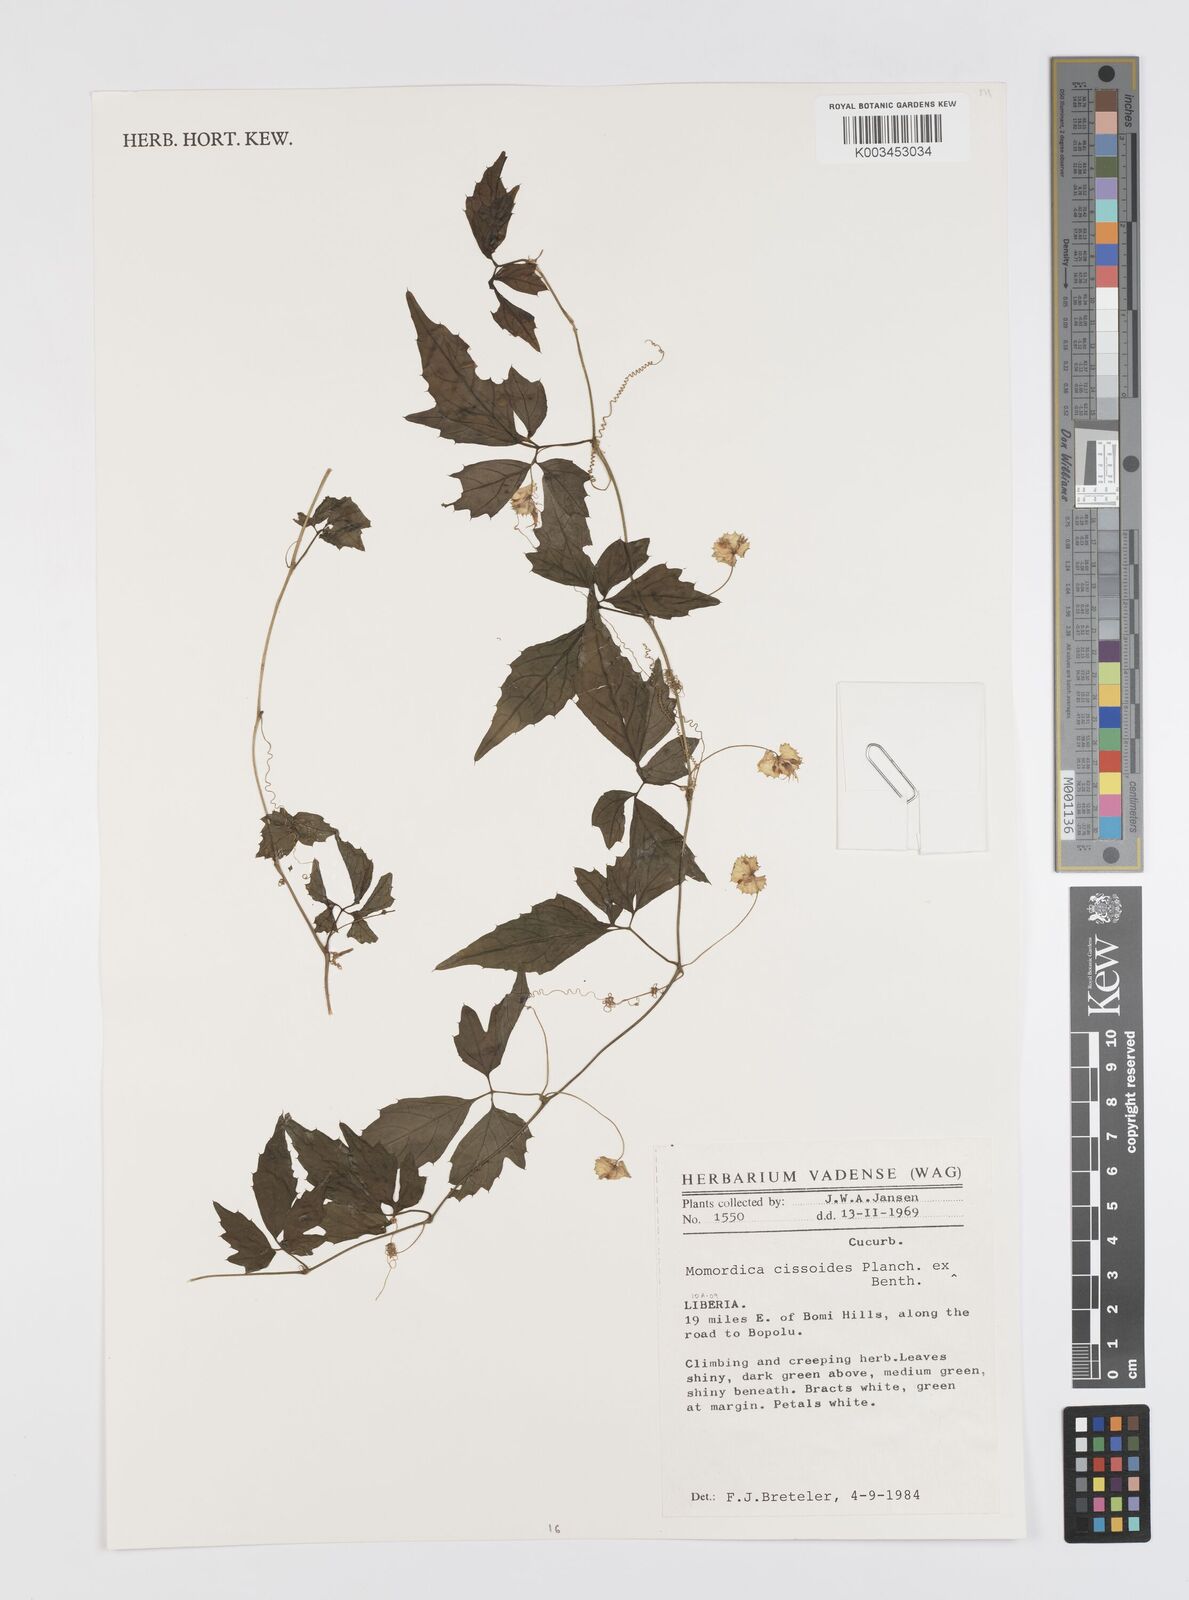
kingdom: Plantae
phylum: Tracheophyta
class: Magnoliopsida
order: Cucurbitales
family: Cucurbitaceae
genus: Momordica
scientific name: Momordica cissoides
